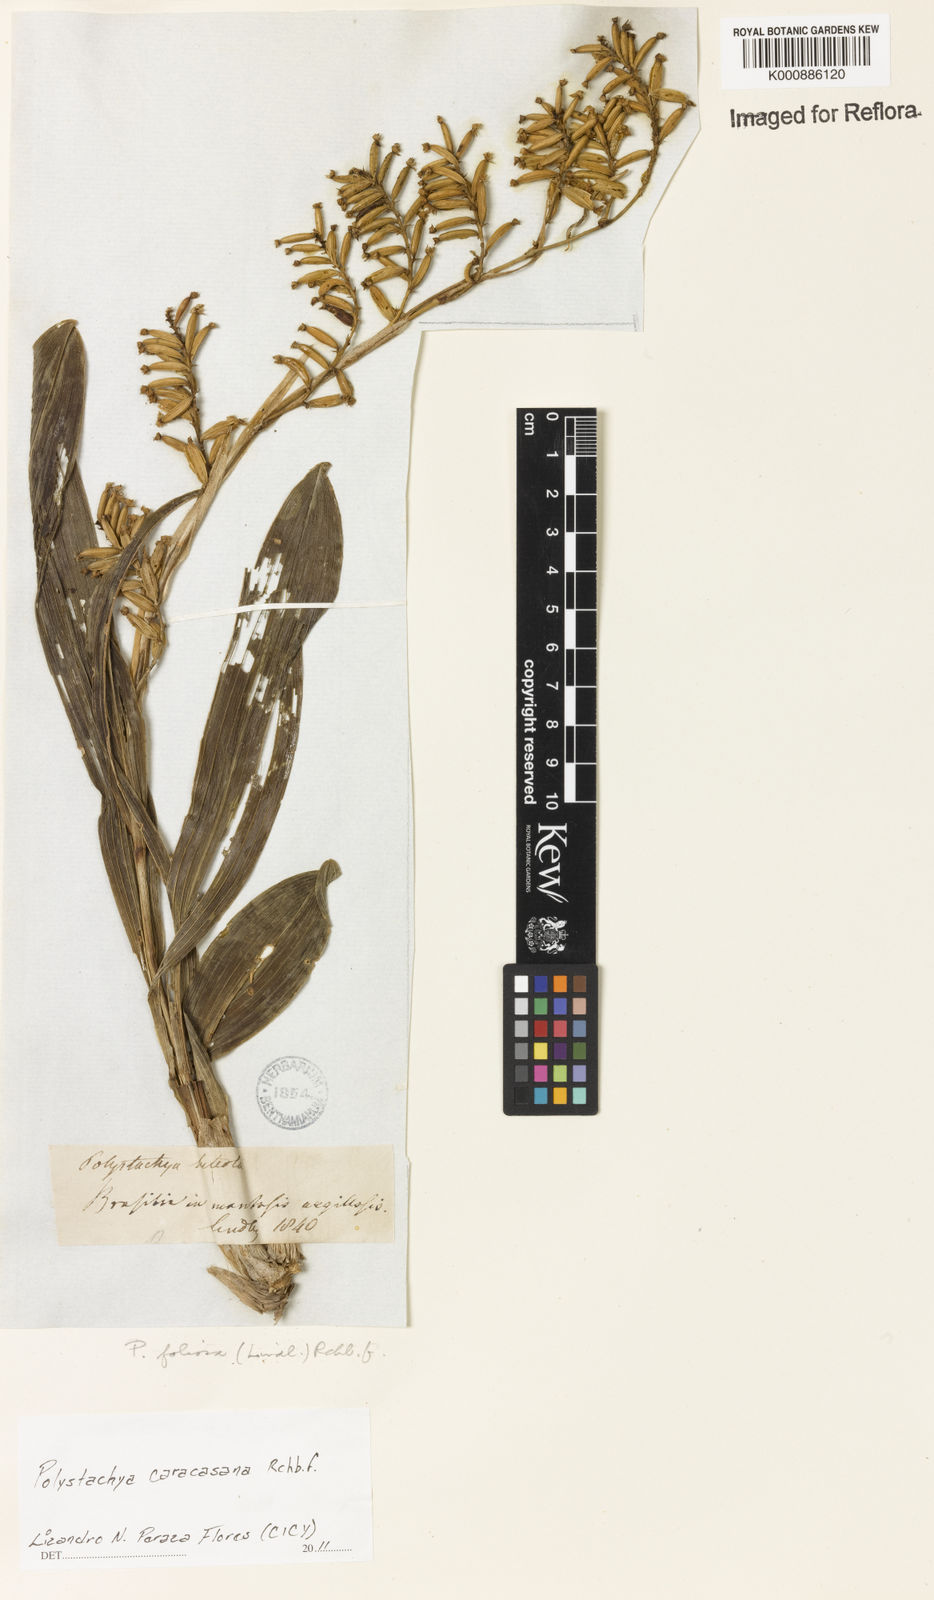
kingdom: Plantae
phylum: Tracheophyta
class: Liliopsida
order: Asparagales
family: Orchidaceae
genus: Polystachya
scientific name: Polystachya foliosa
